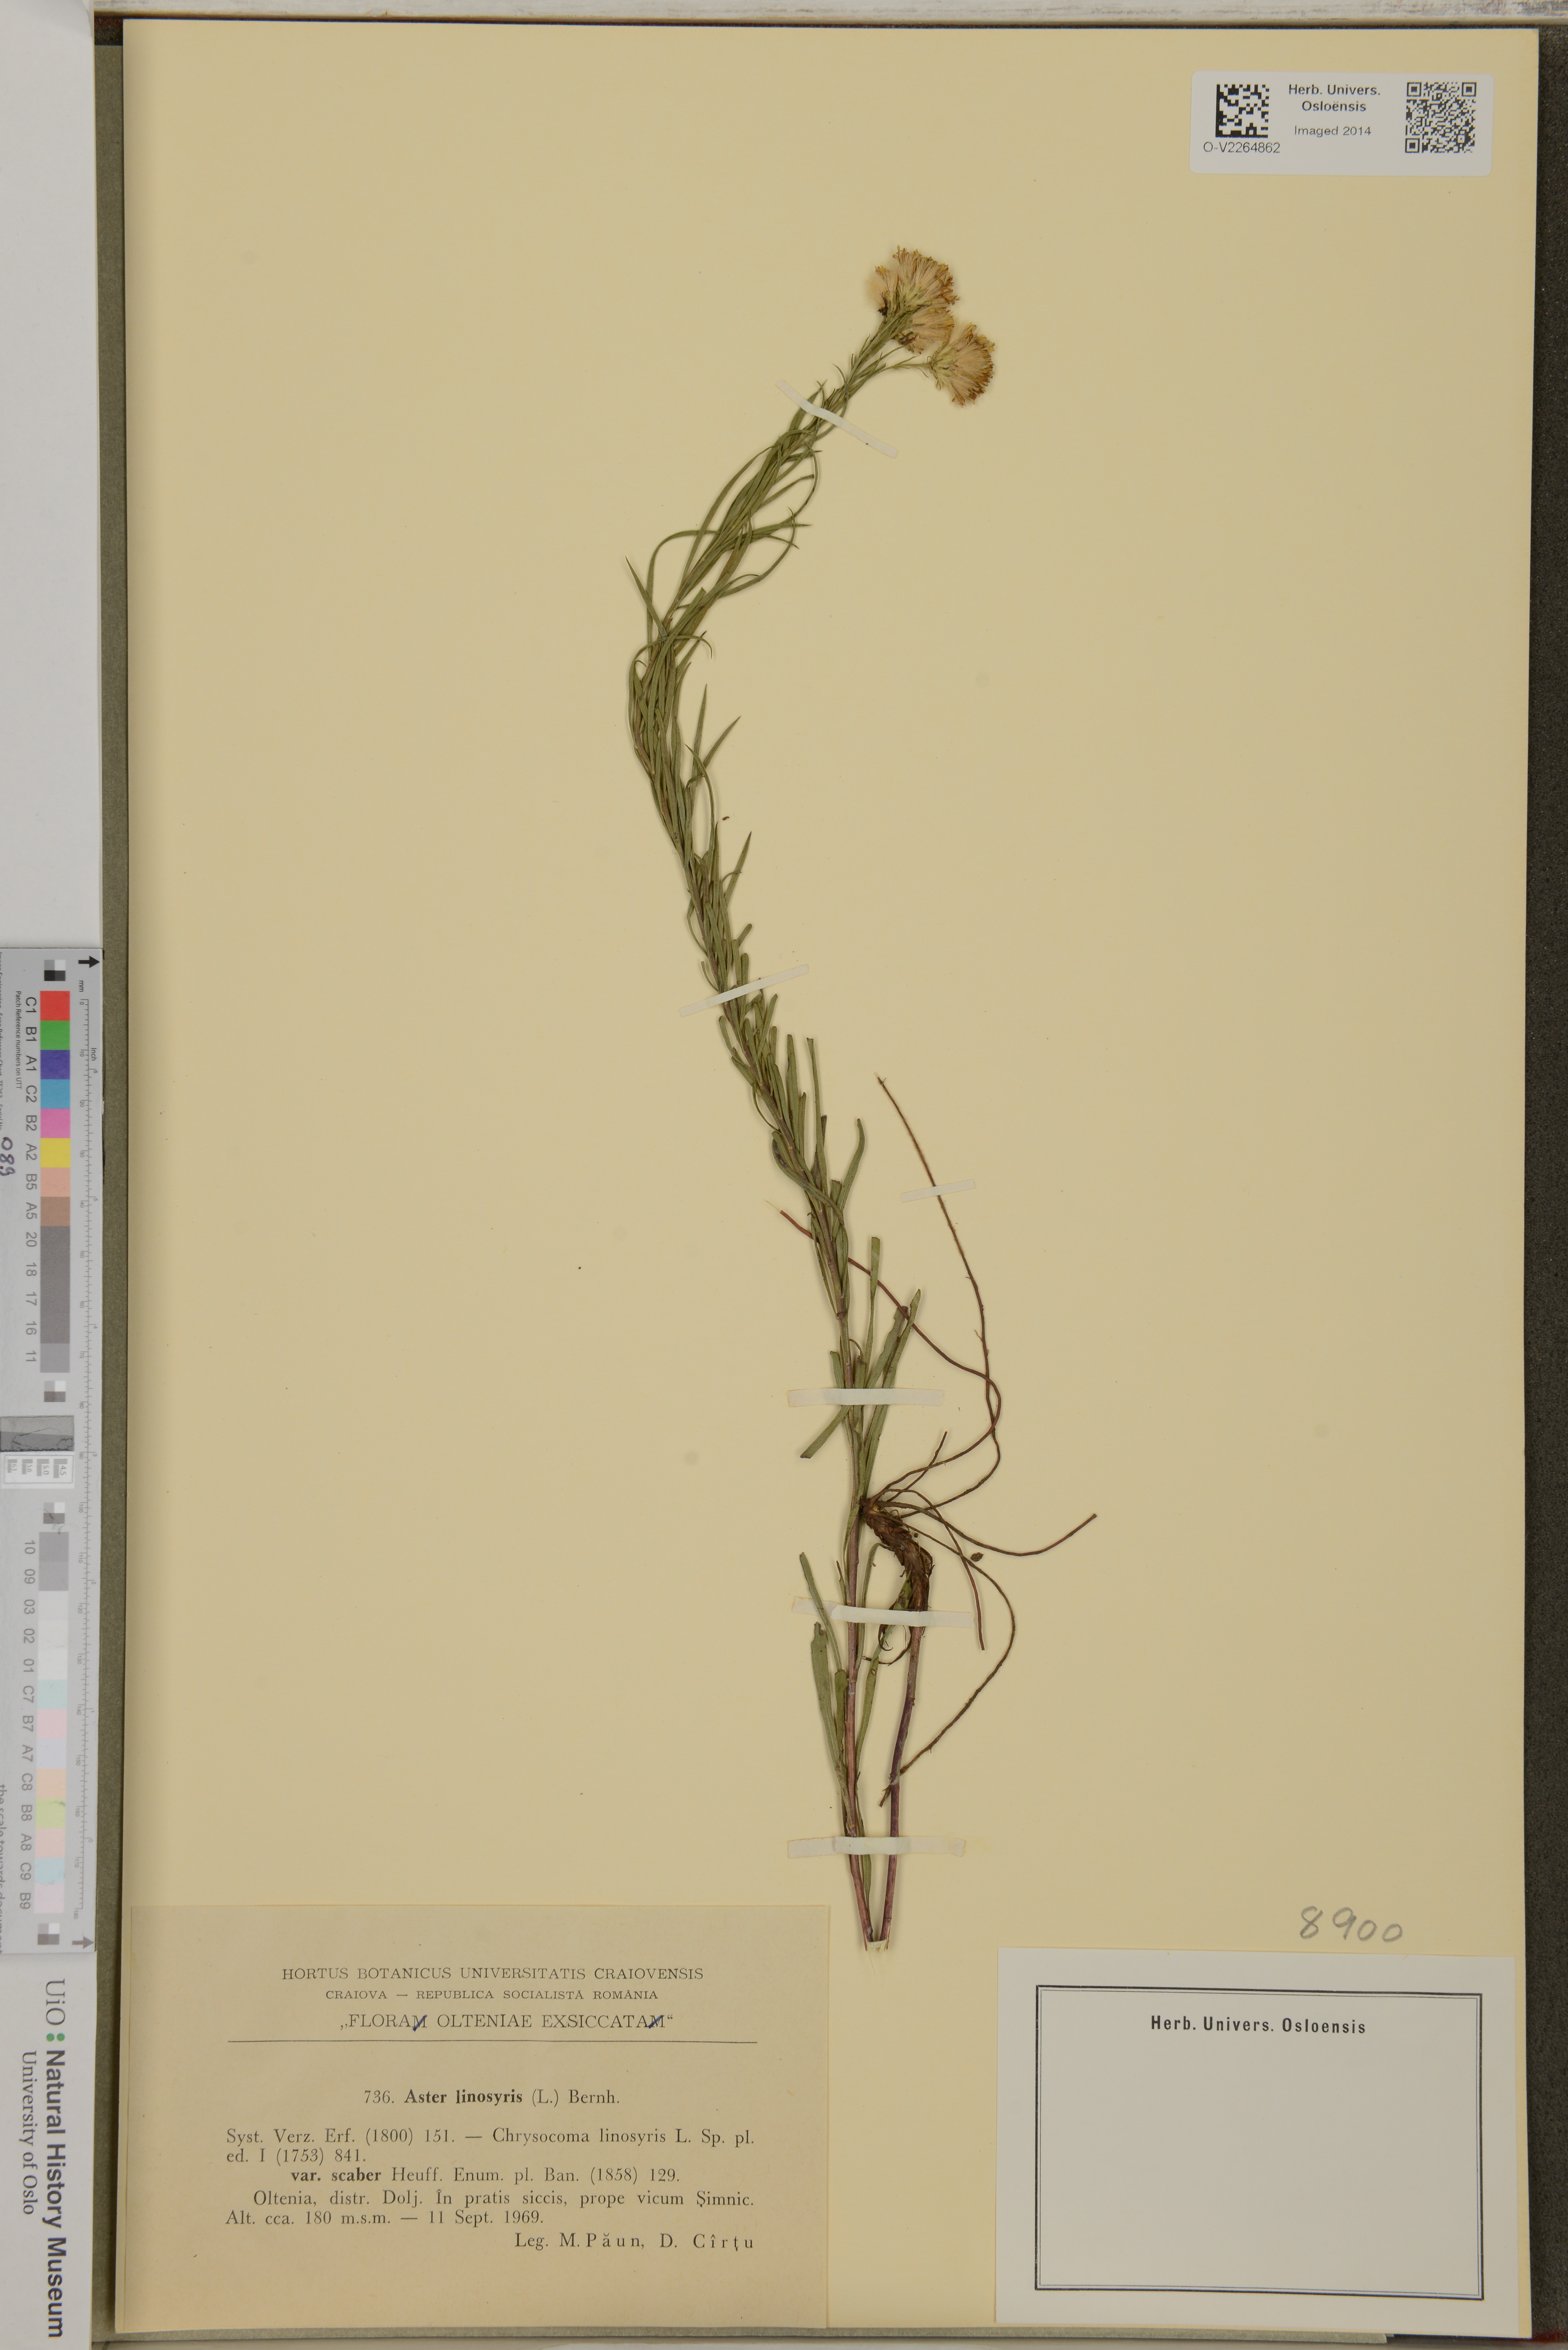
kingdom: Plantae
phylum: Tracheophyta
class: Magnoliopsida
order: Asterales
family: Asteraceae
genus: Galatella
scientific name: Galatella linosyris
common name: Goldilocks aster
